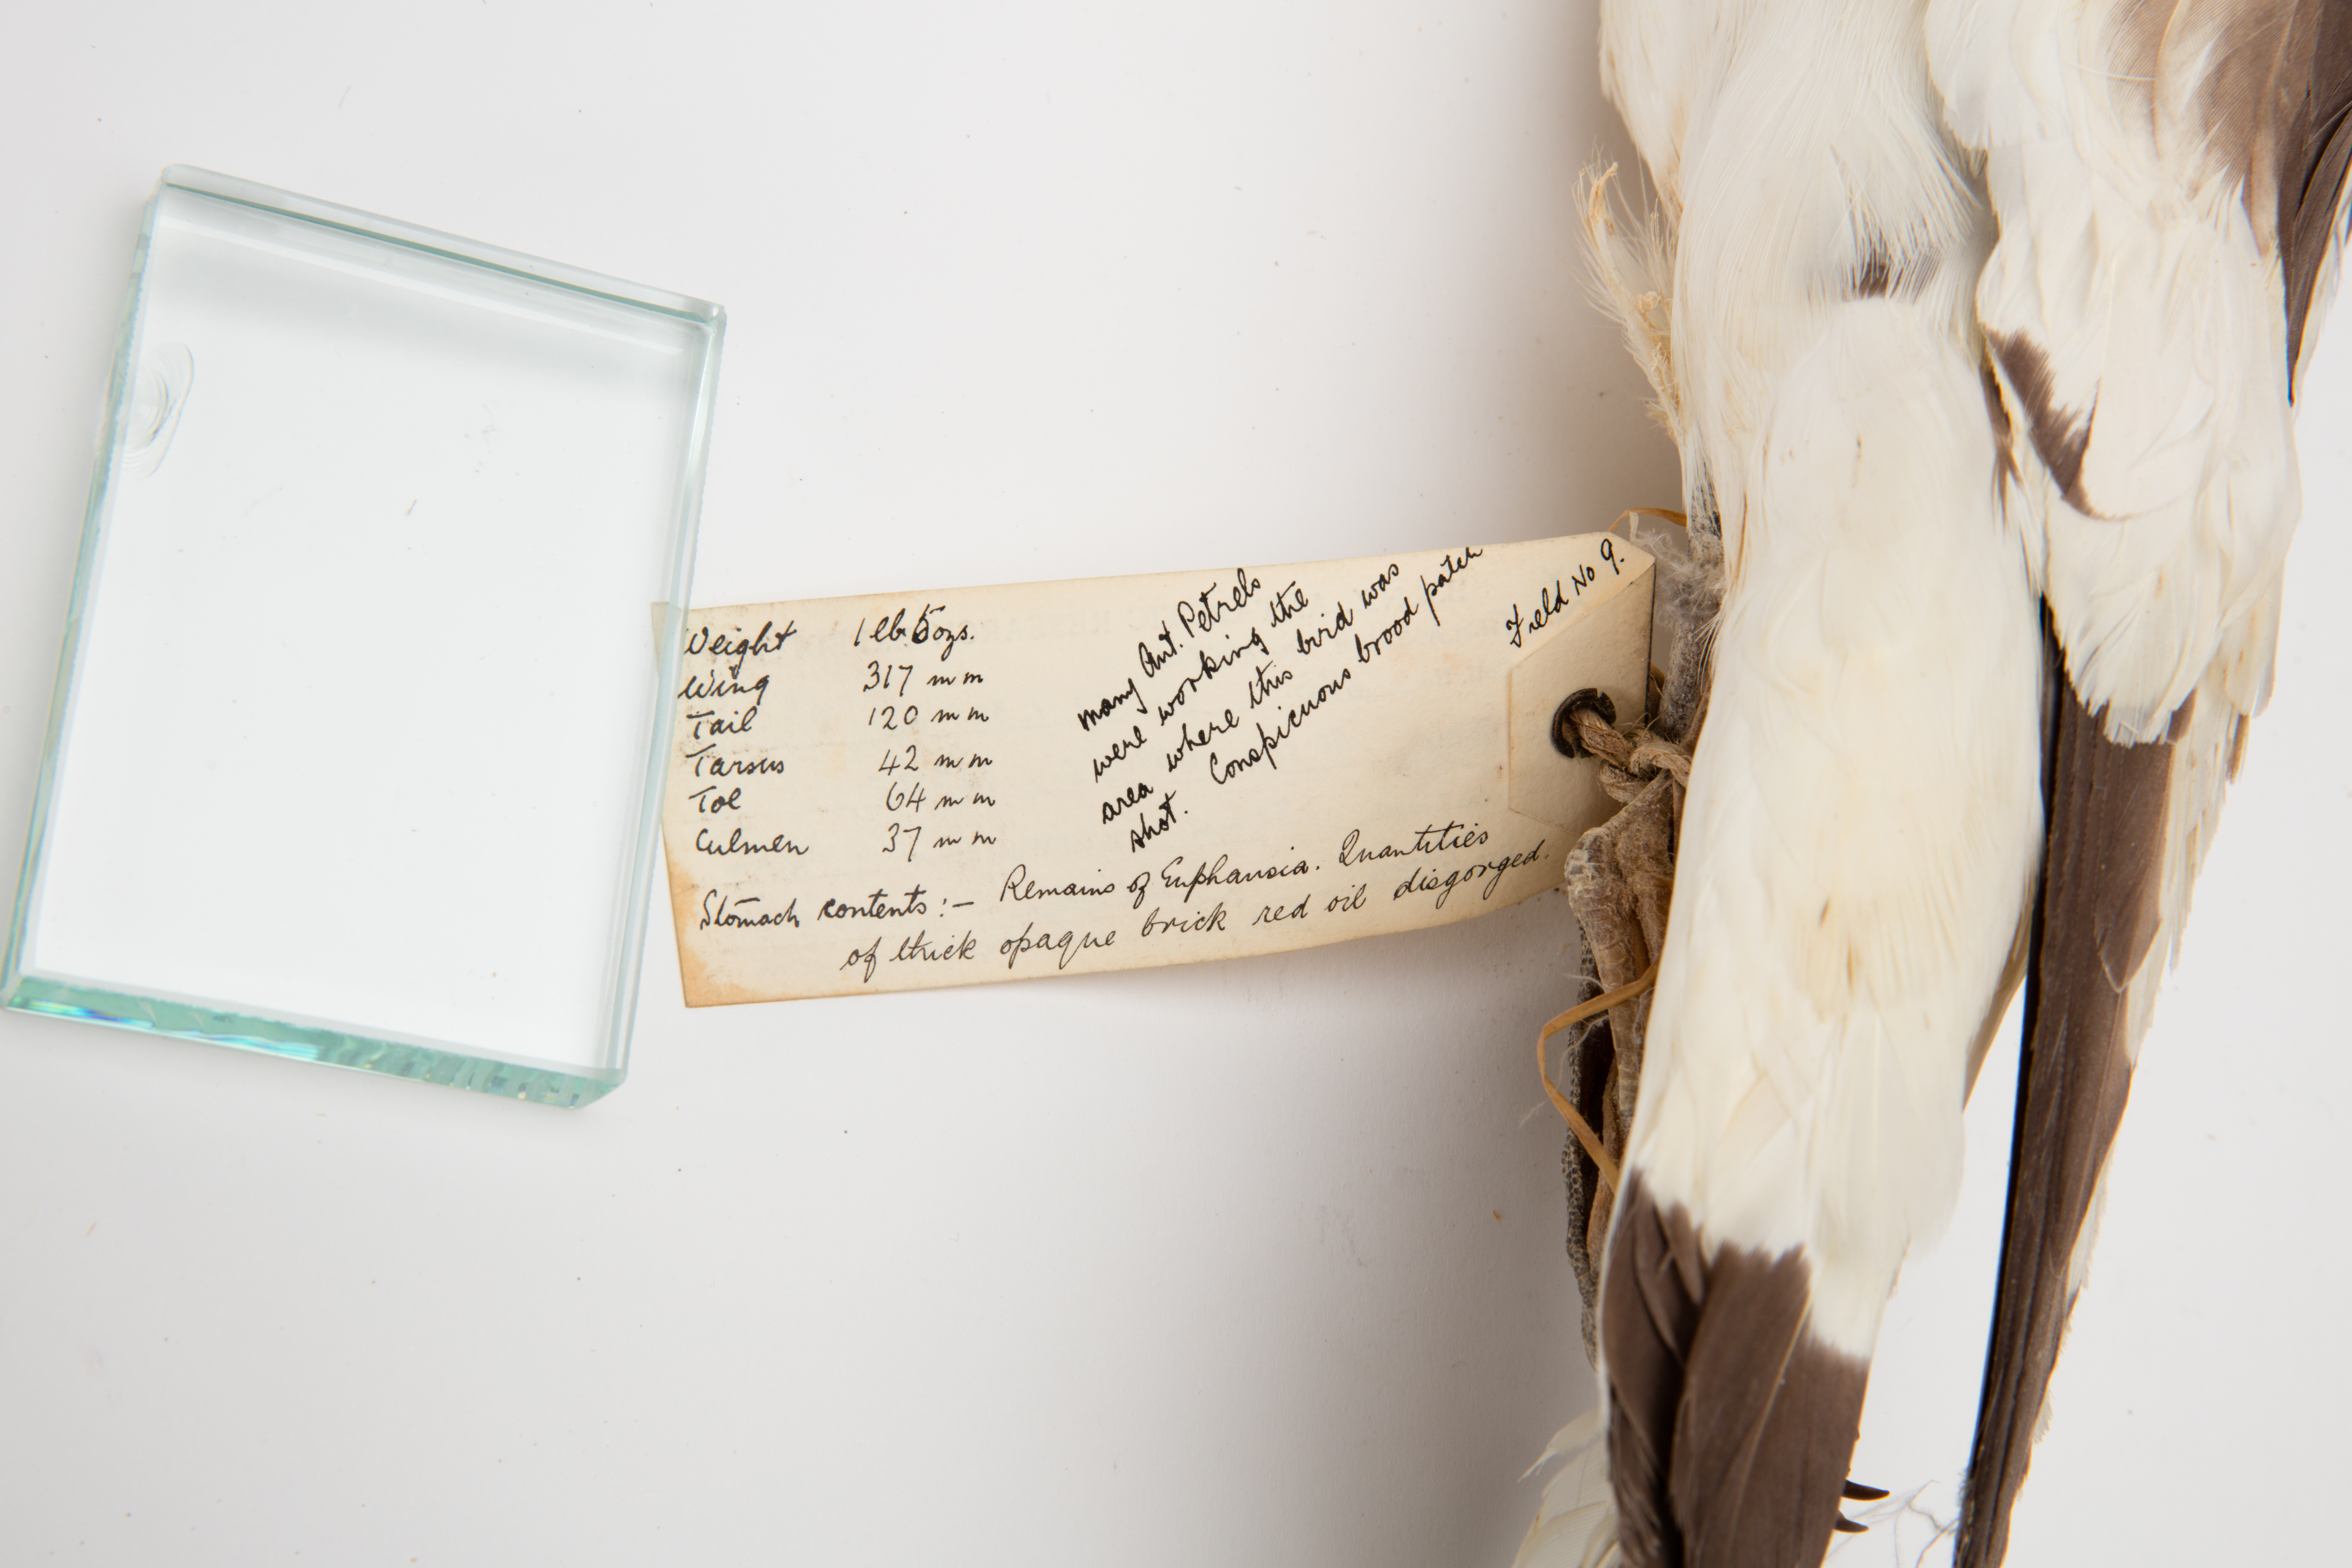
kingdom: Animalia
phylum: Chordata
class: Aves
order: Procellariiformes
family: Procellariidae
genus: Thalassoica
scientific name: Thalassoica antarctica
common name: Antarctic petrel
